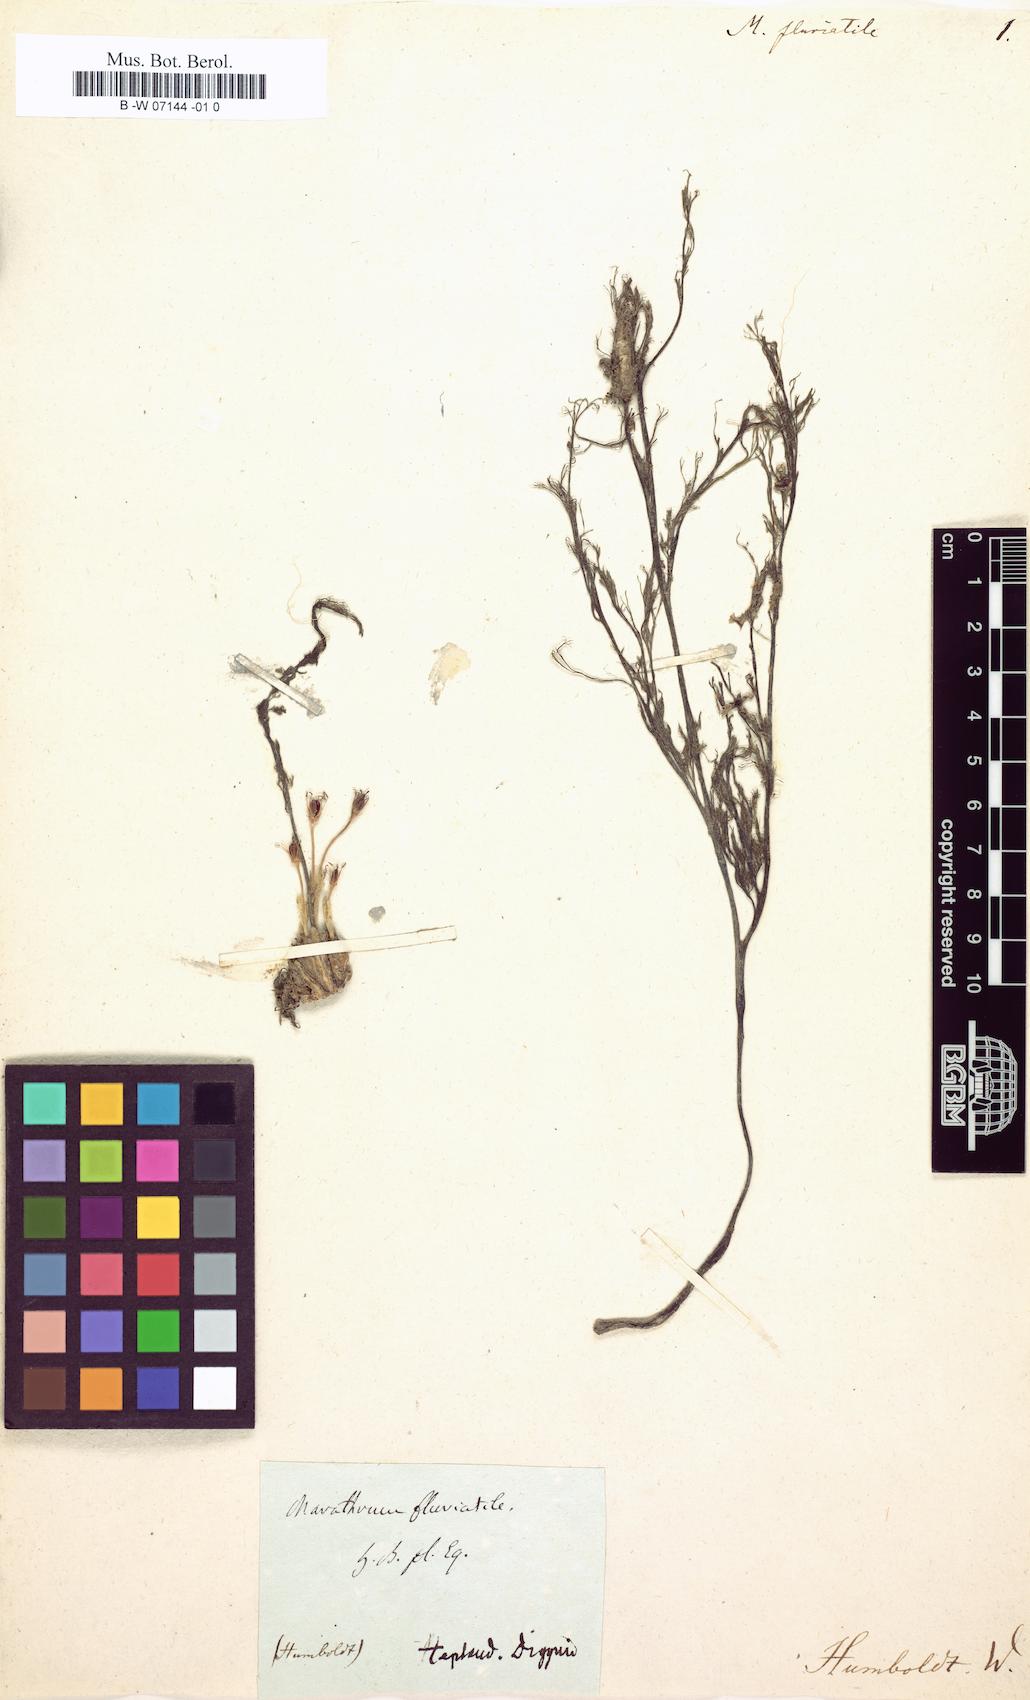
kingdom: Plantae
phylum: Tracheophyta
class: Magnoliopsida
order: Malpighiales
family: Podostemaceae
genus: Marathrum
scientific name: Marathrum
